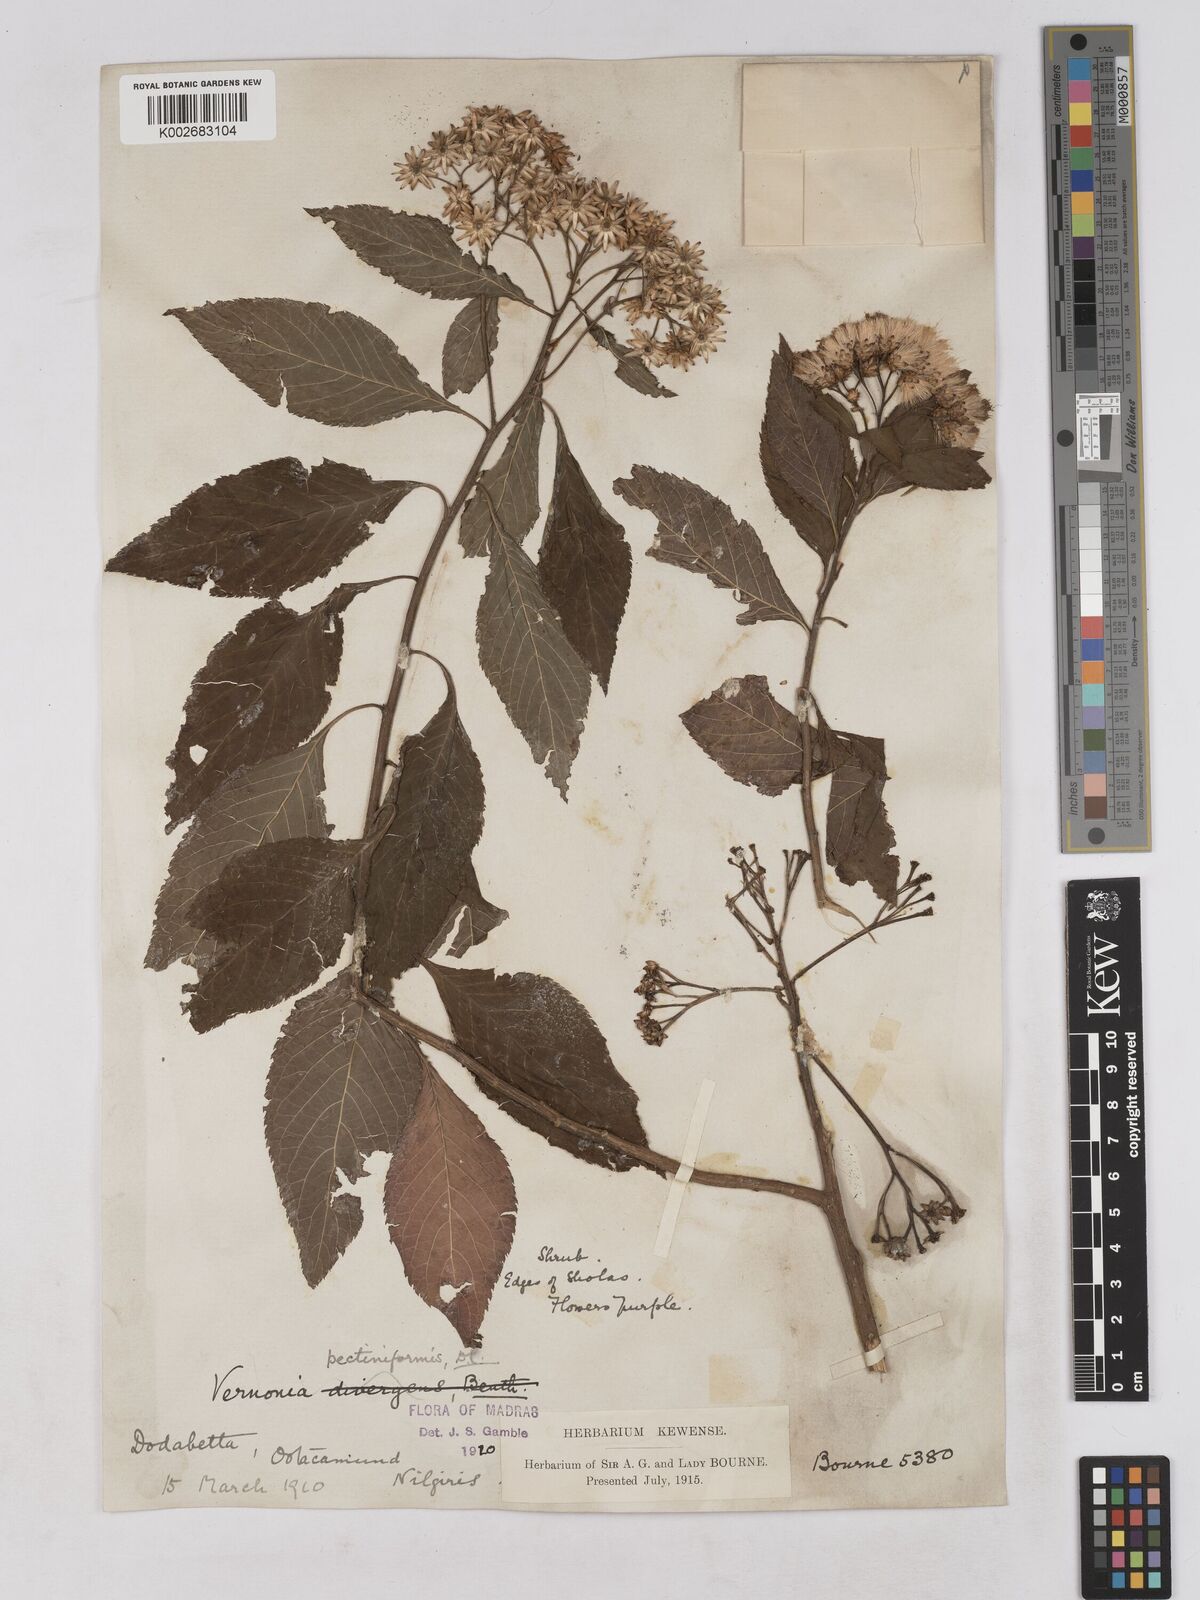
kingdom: Plantae
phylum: Tracheophyta
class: Magnoliopsida
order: Asterales
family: Asteraceae
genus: Gymnanthemum
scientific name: Gymnanthemum pectiniforme
